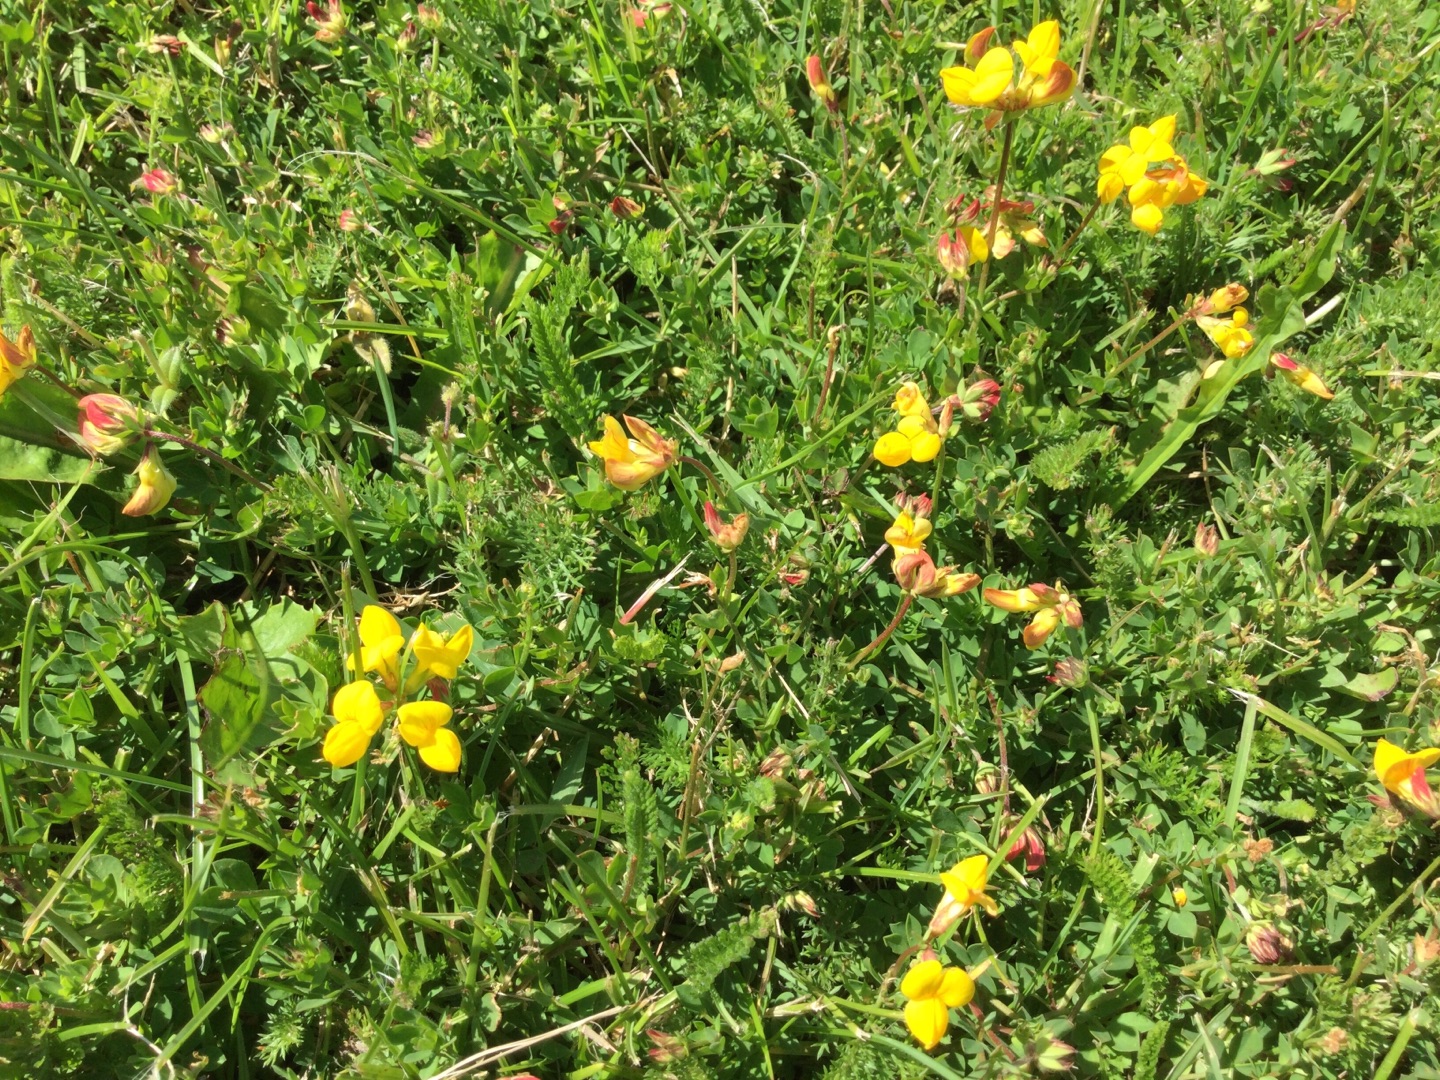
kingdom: Plantae
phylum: Tracheophyta
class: Magnoliopsida
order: Fabales
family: Fabaceae
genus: Lotus
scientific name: Lotus corniculatus
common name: Almindelig kællingetand
